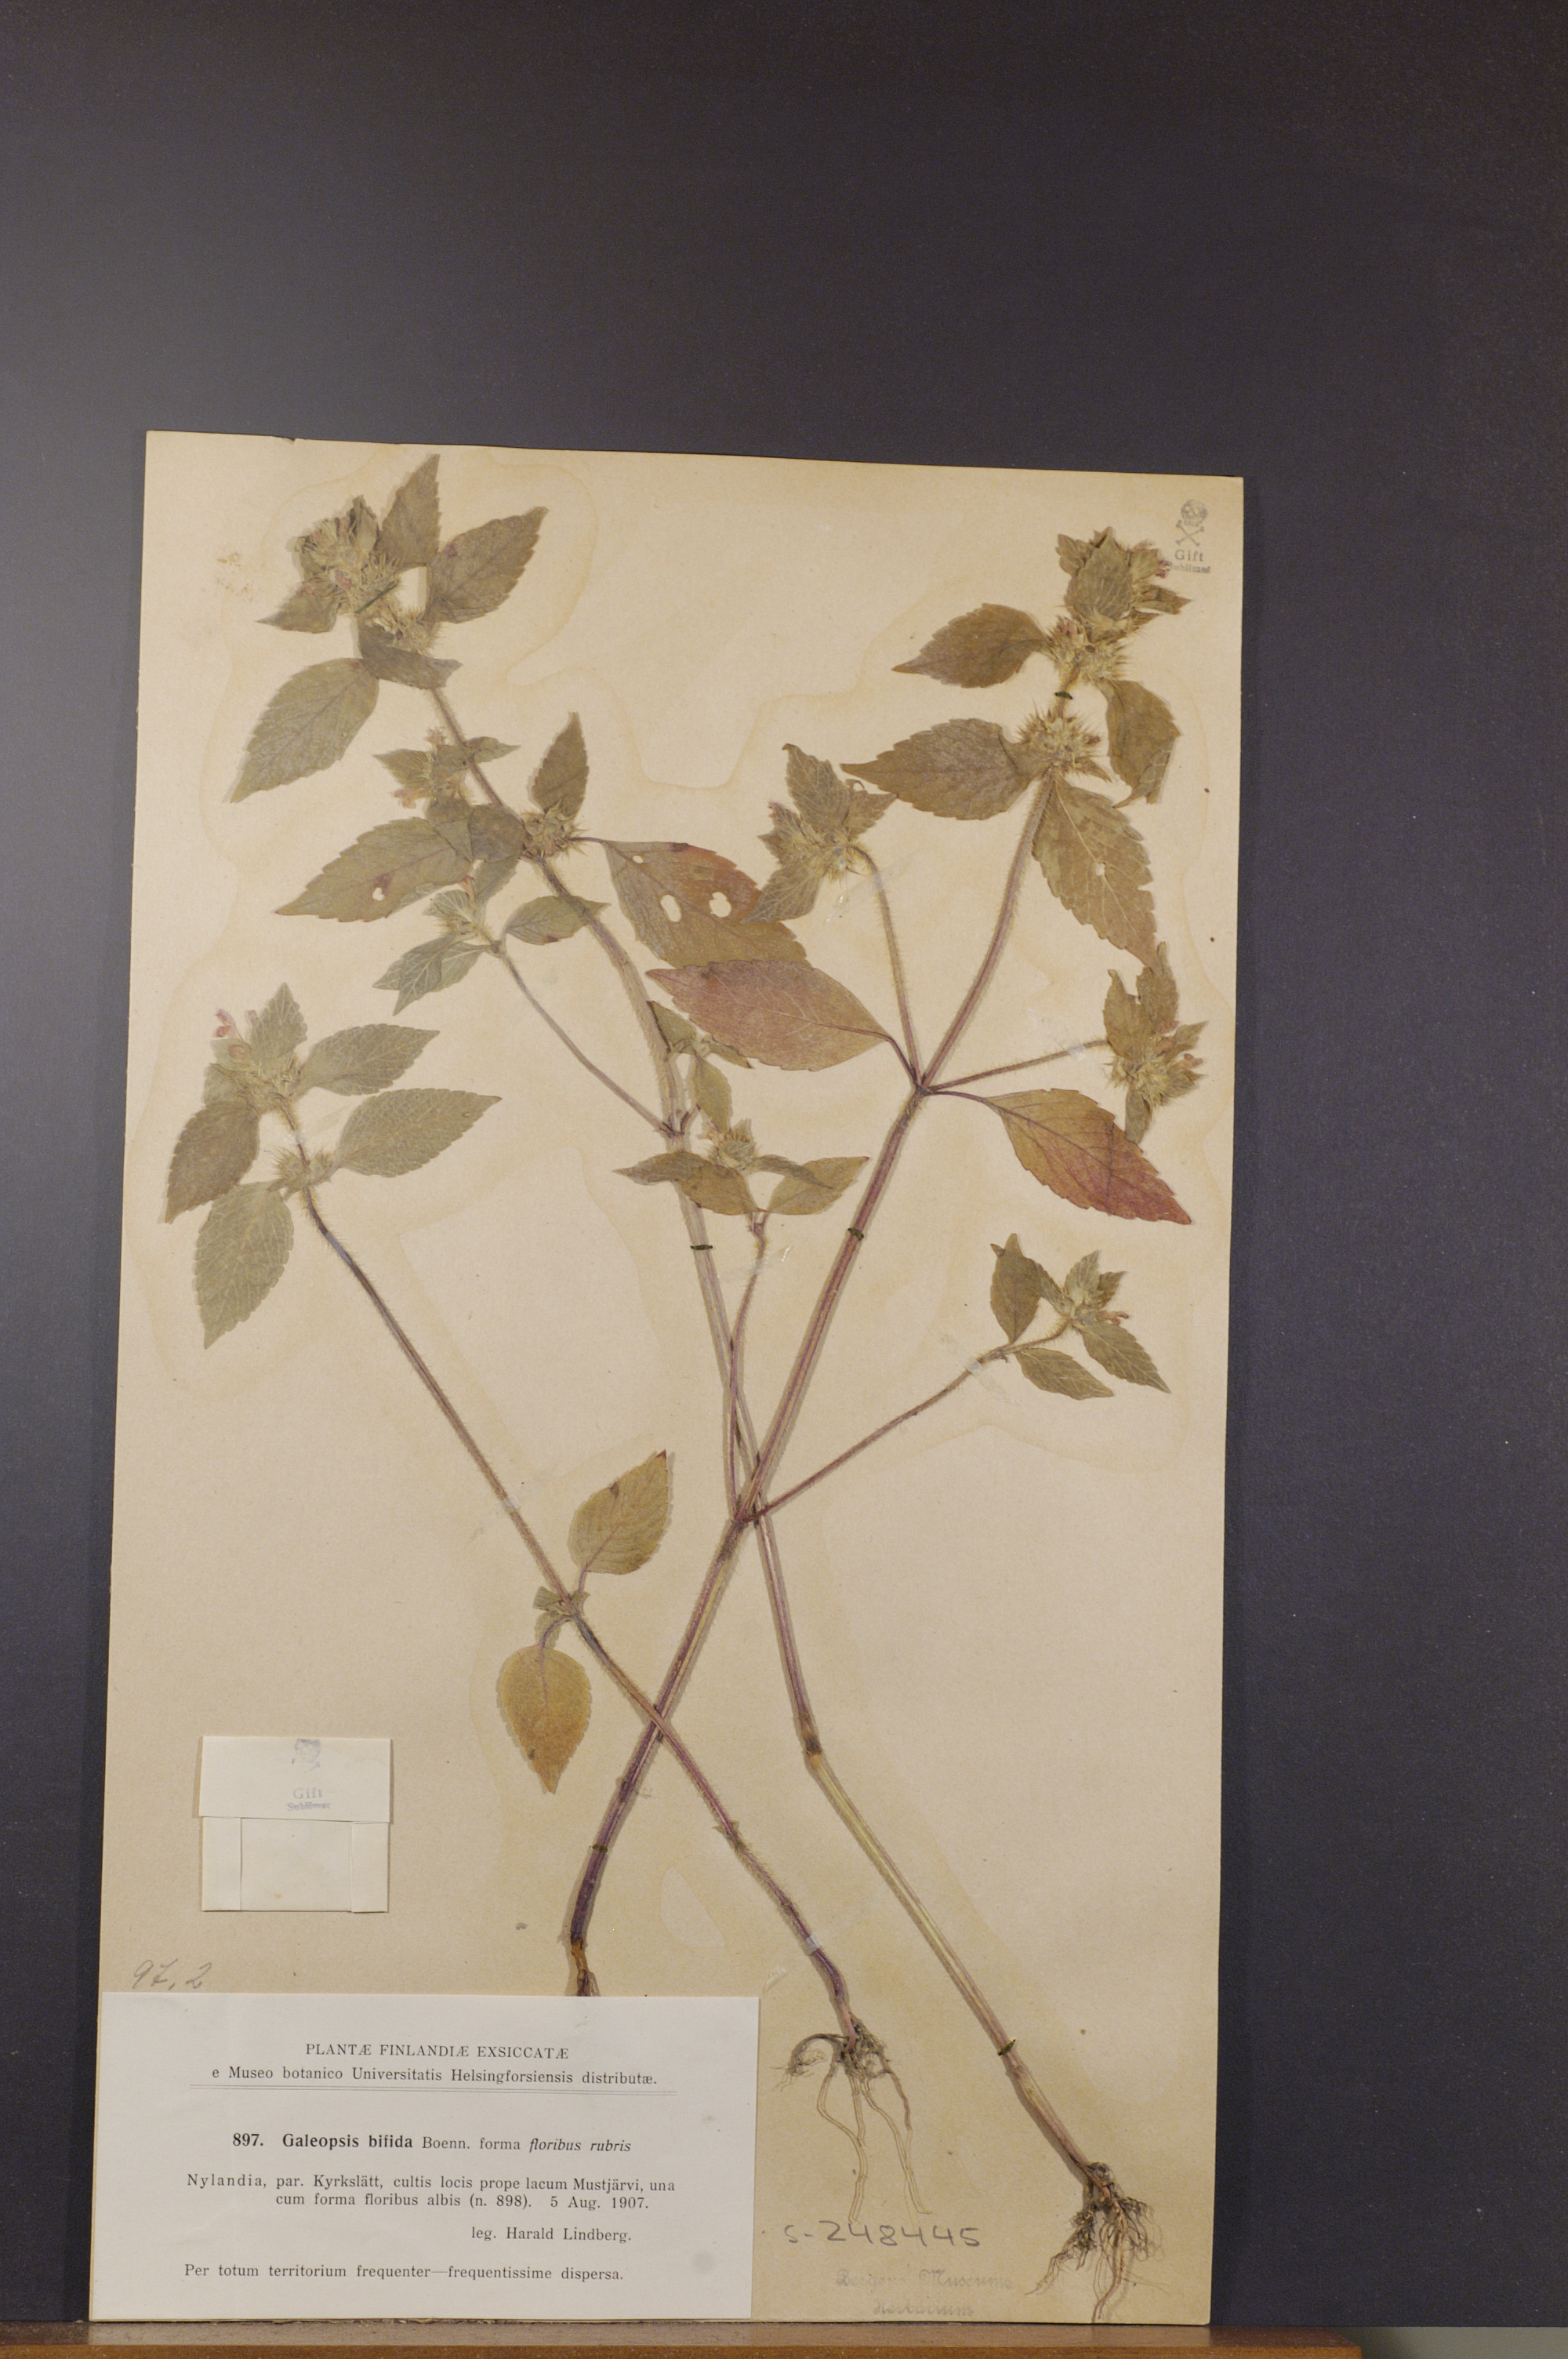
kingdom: Plantae
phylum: Tracheophyta
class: Magnoliopsida
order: Lamiales
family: Lamiaceae
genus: Galeopsis
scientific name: Galeopsis bifida
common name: Bifid hemp-nettle
